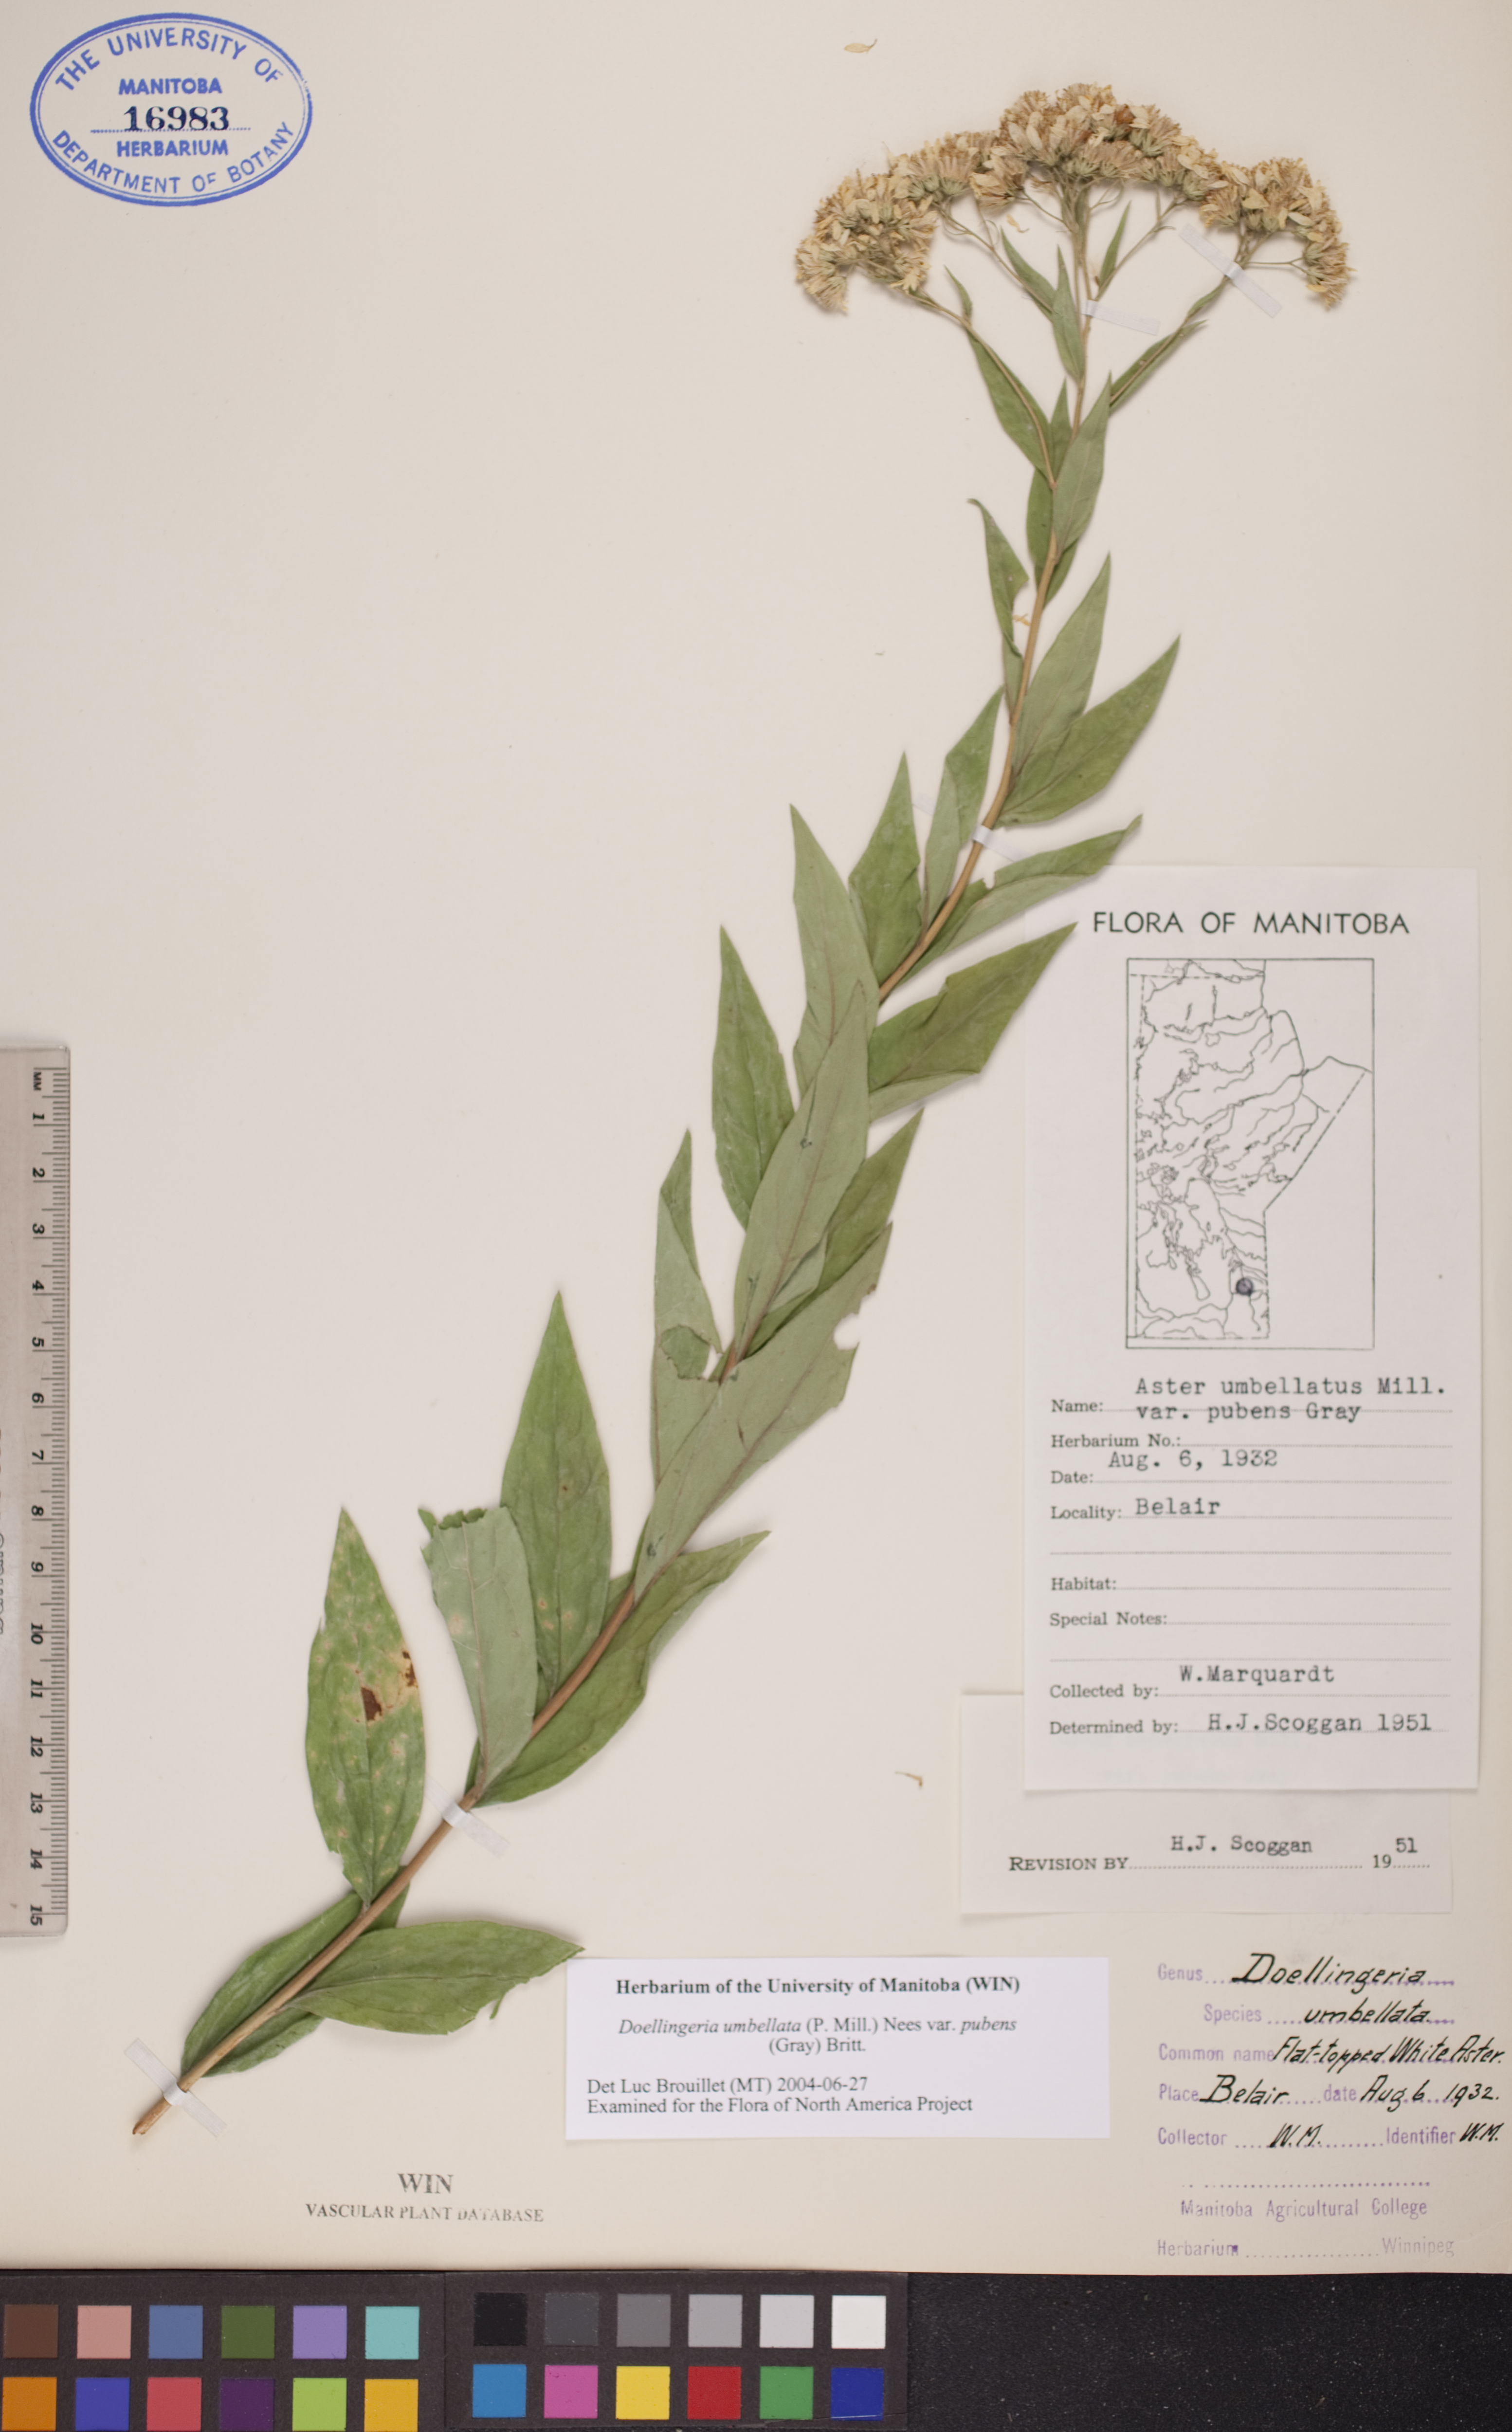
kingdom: Plantae
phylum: Tracheophyta
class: Magnoliopsida
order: Asterales
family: Asteraceae
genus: Doellingeria
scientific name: Doellingeria umbellata
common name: Flat-top white aster
